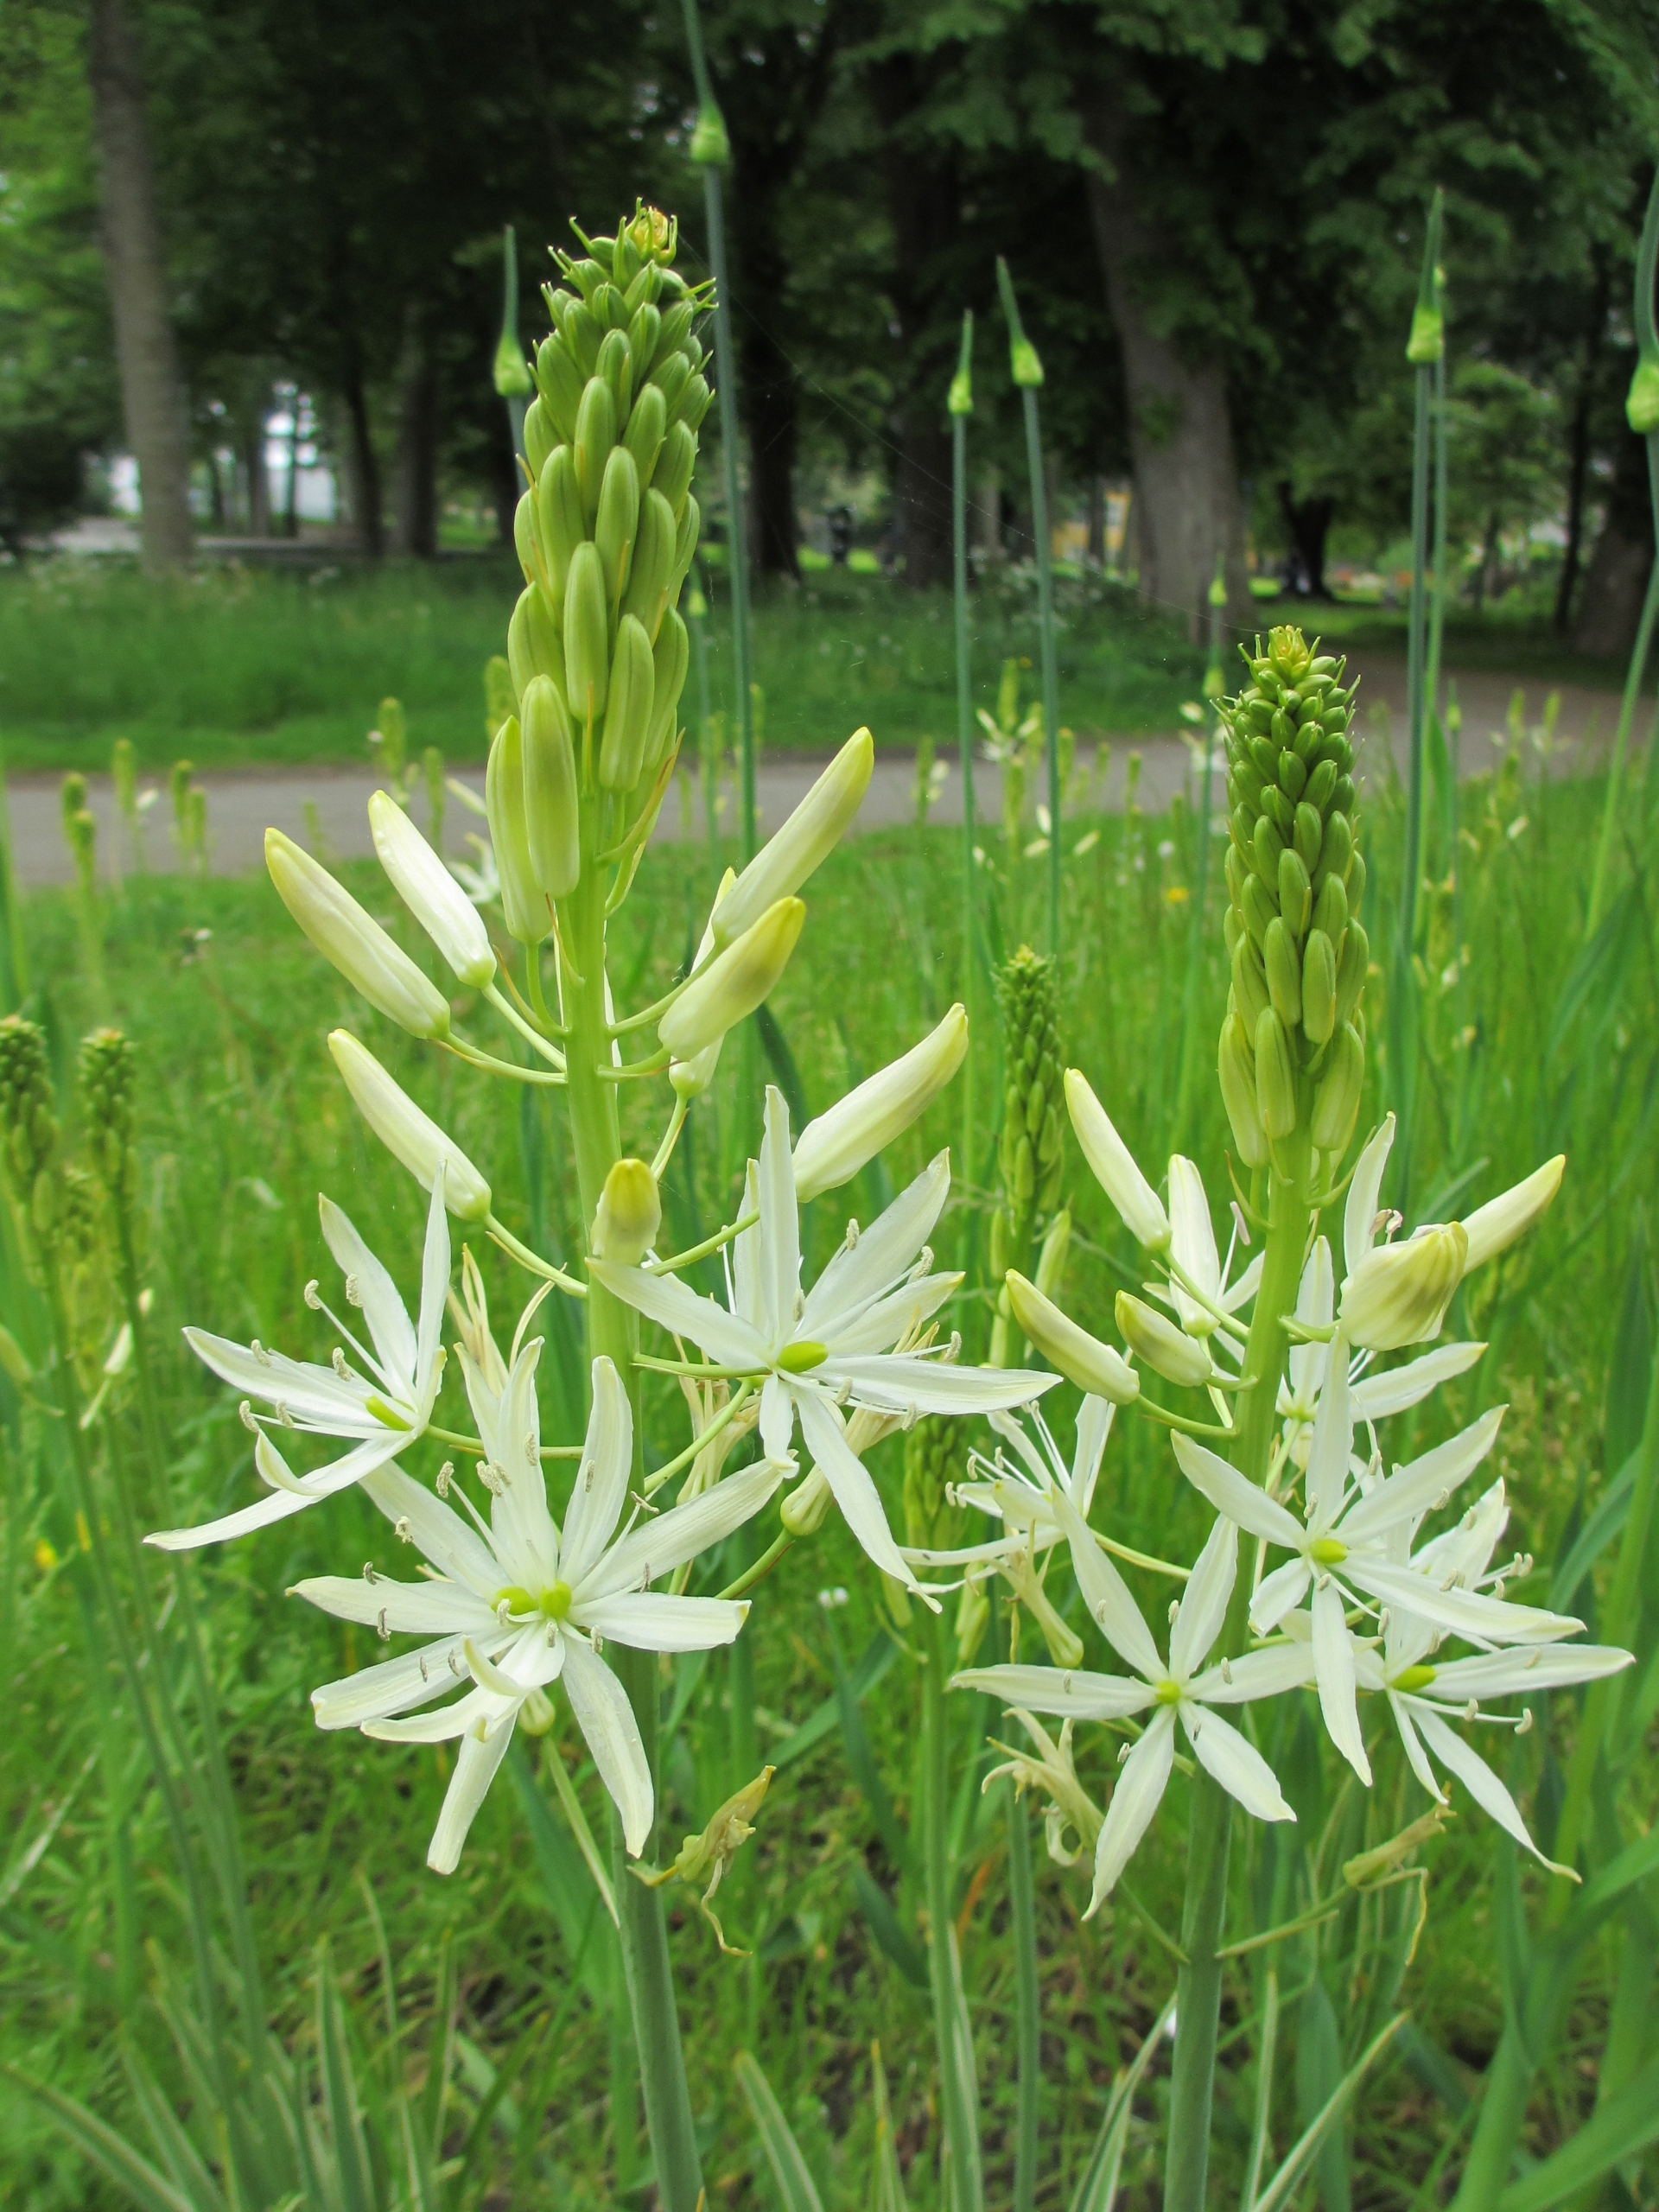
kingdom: Plantae
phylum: Tracheophyta
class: Liliopsida
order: Asparagales
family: Asparagaceae
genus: Ornithogalum
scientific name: Ornithogalum narbonense
